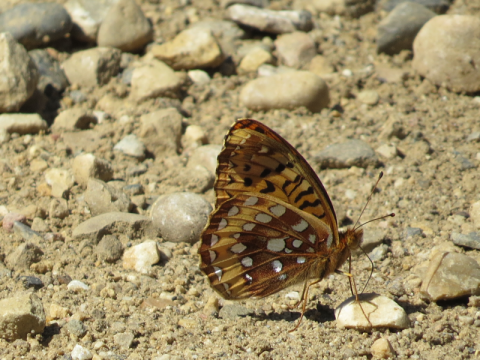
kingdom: Animalia
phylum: Arthropoda
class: Insecta
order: Lepidoptera
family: Nymphalidae
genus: Speyeria
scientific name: Speyeria cybele
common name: Great Spangled Fritillary
